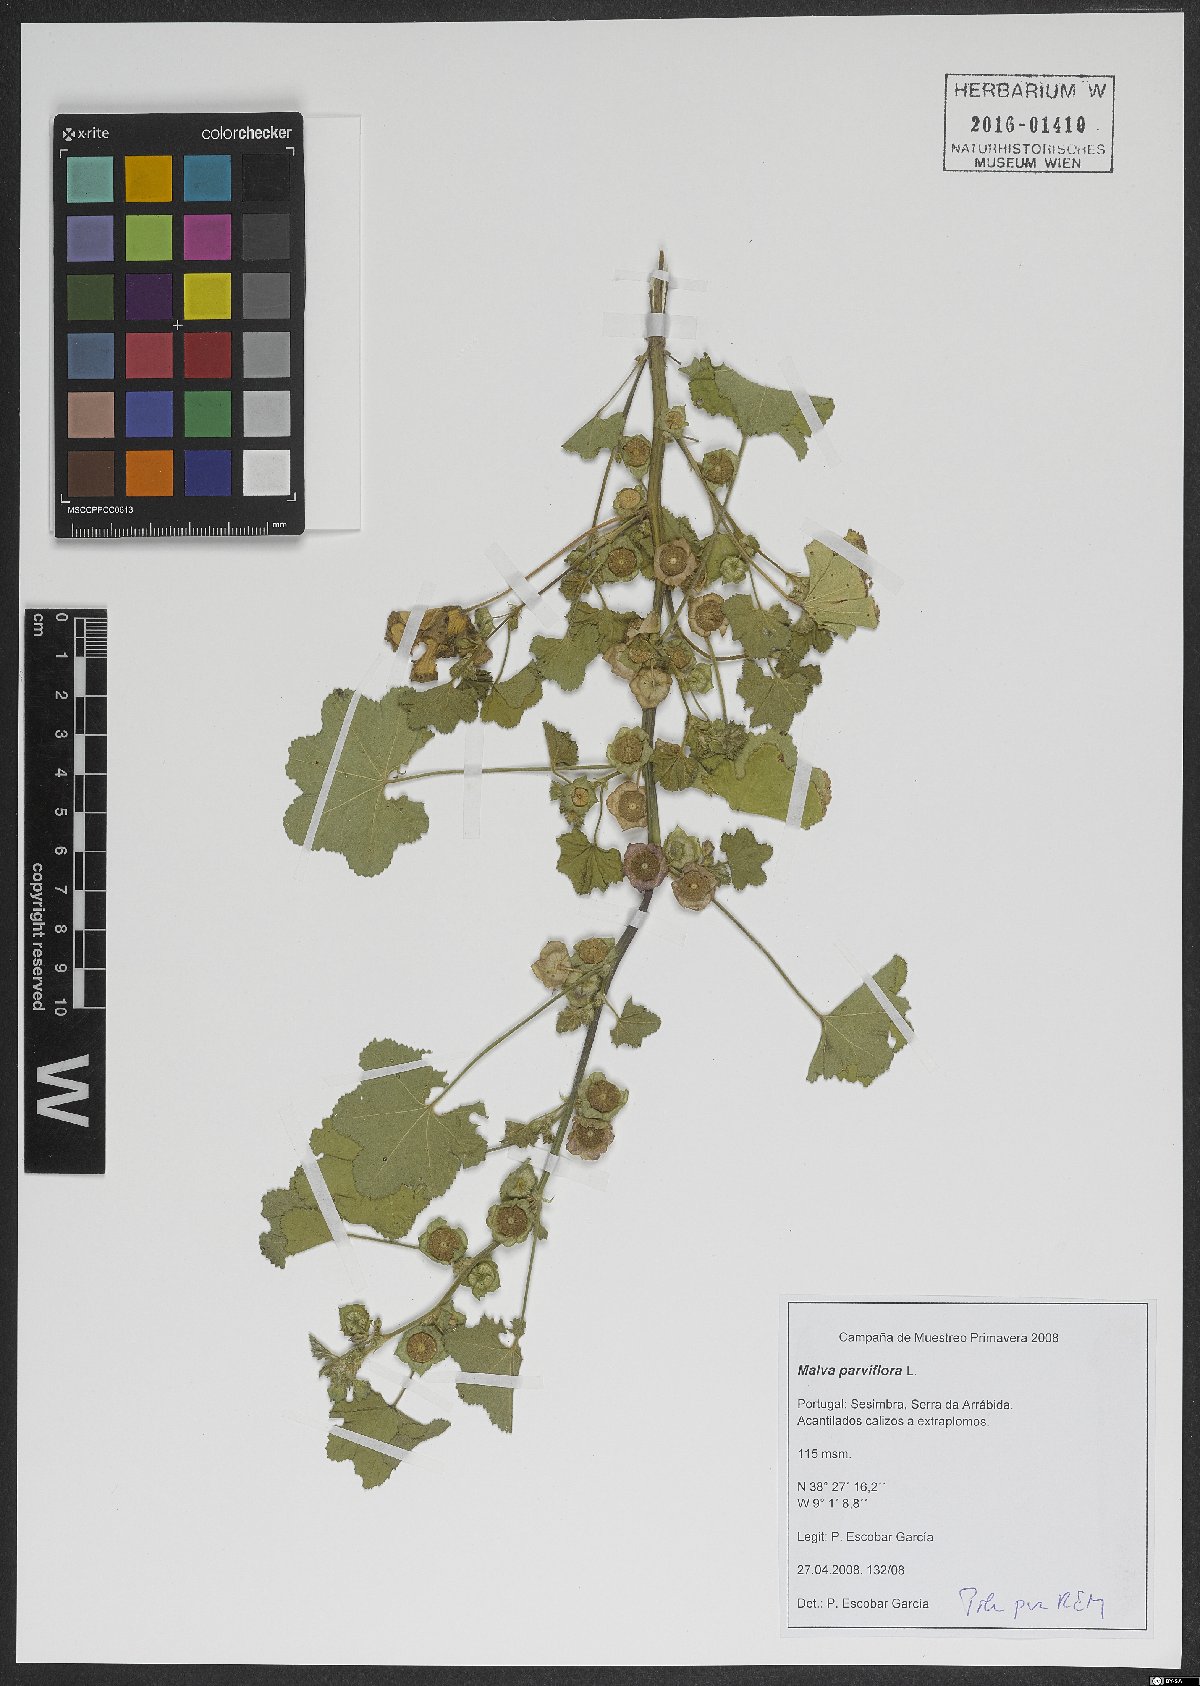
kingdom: Plantae
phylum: Tracheophyta
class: Magnoliopsida
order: Malvales
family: Malvaceae
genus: Malva
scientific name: Malva parviflora
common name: Least mallow
